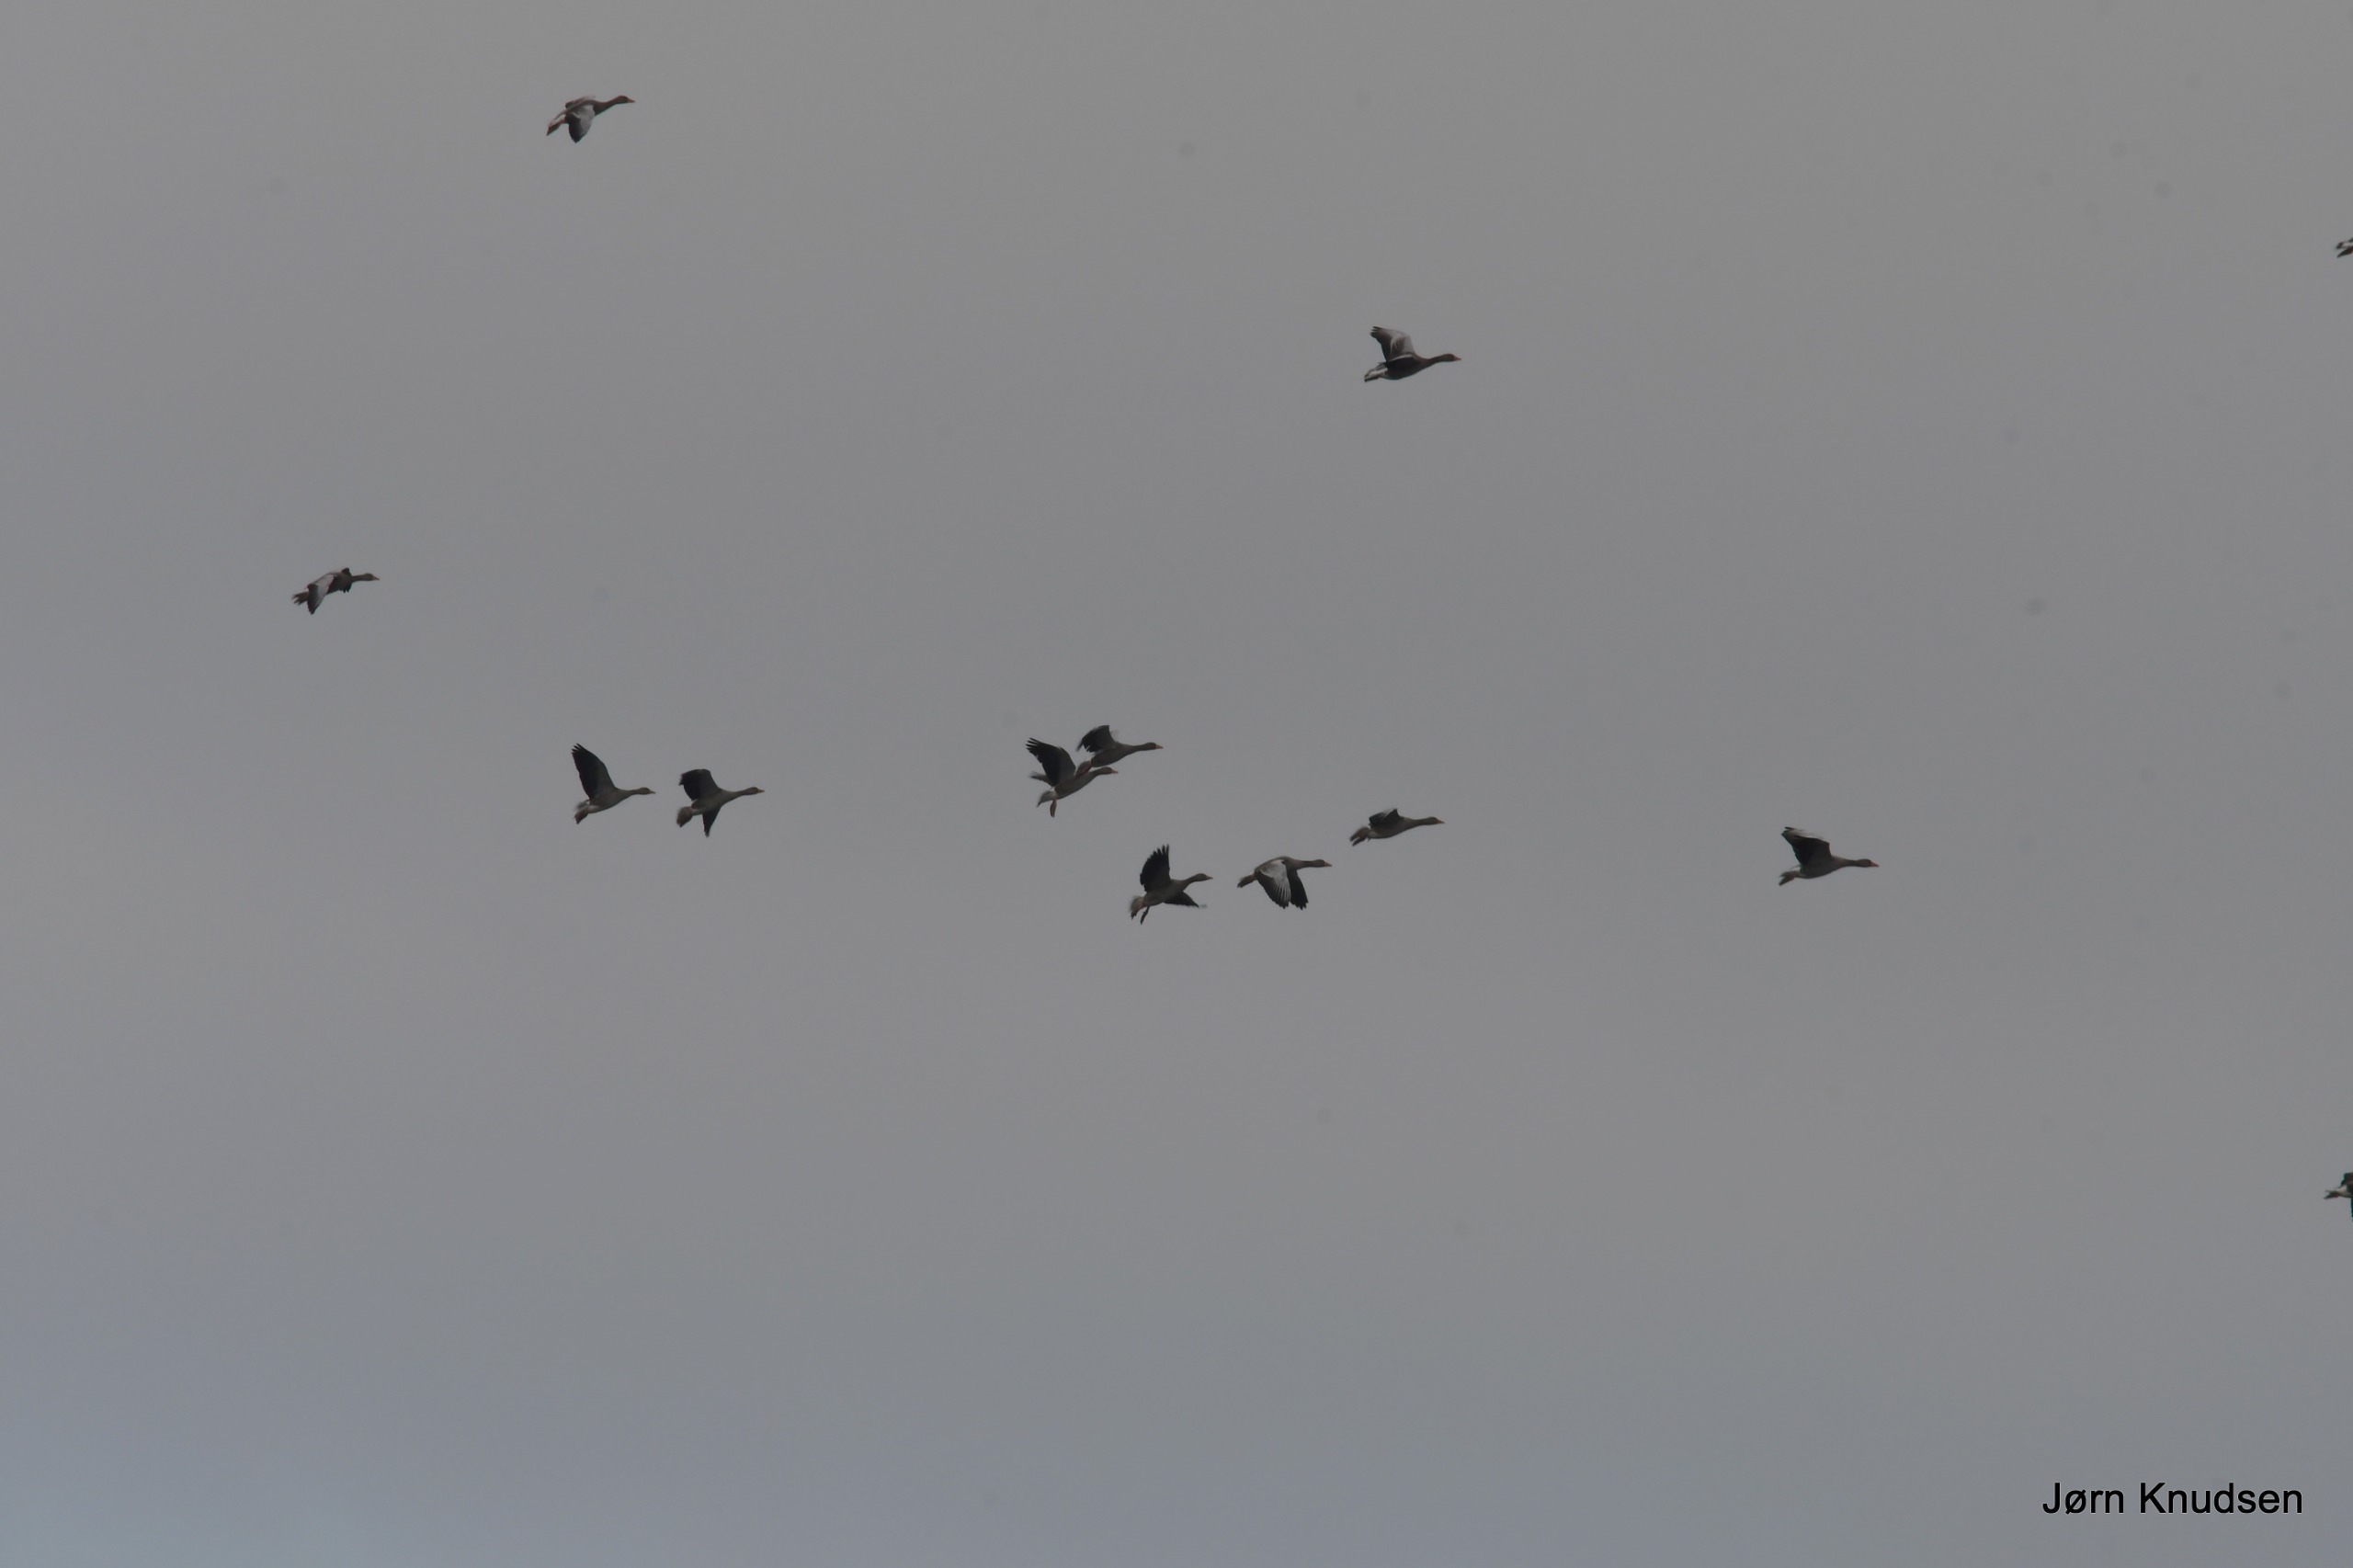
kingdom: Animalia
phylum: Chordata
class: Aves
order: Anseriformes
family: Anatidae
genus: Anser
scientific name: Anser anser
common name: Grågås
